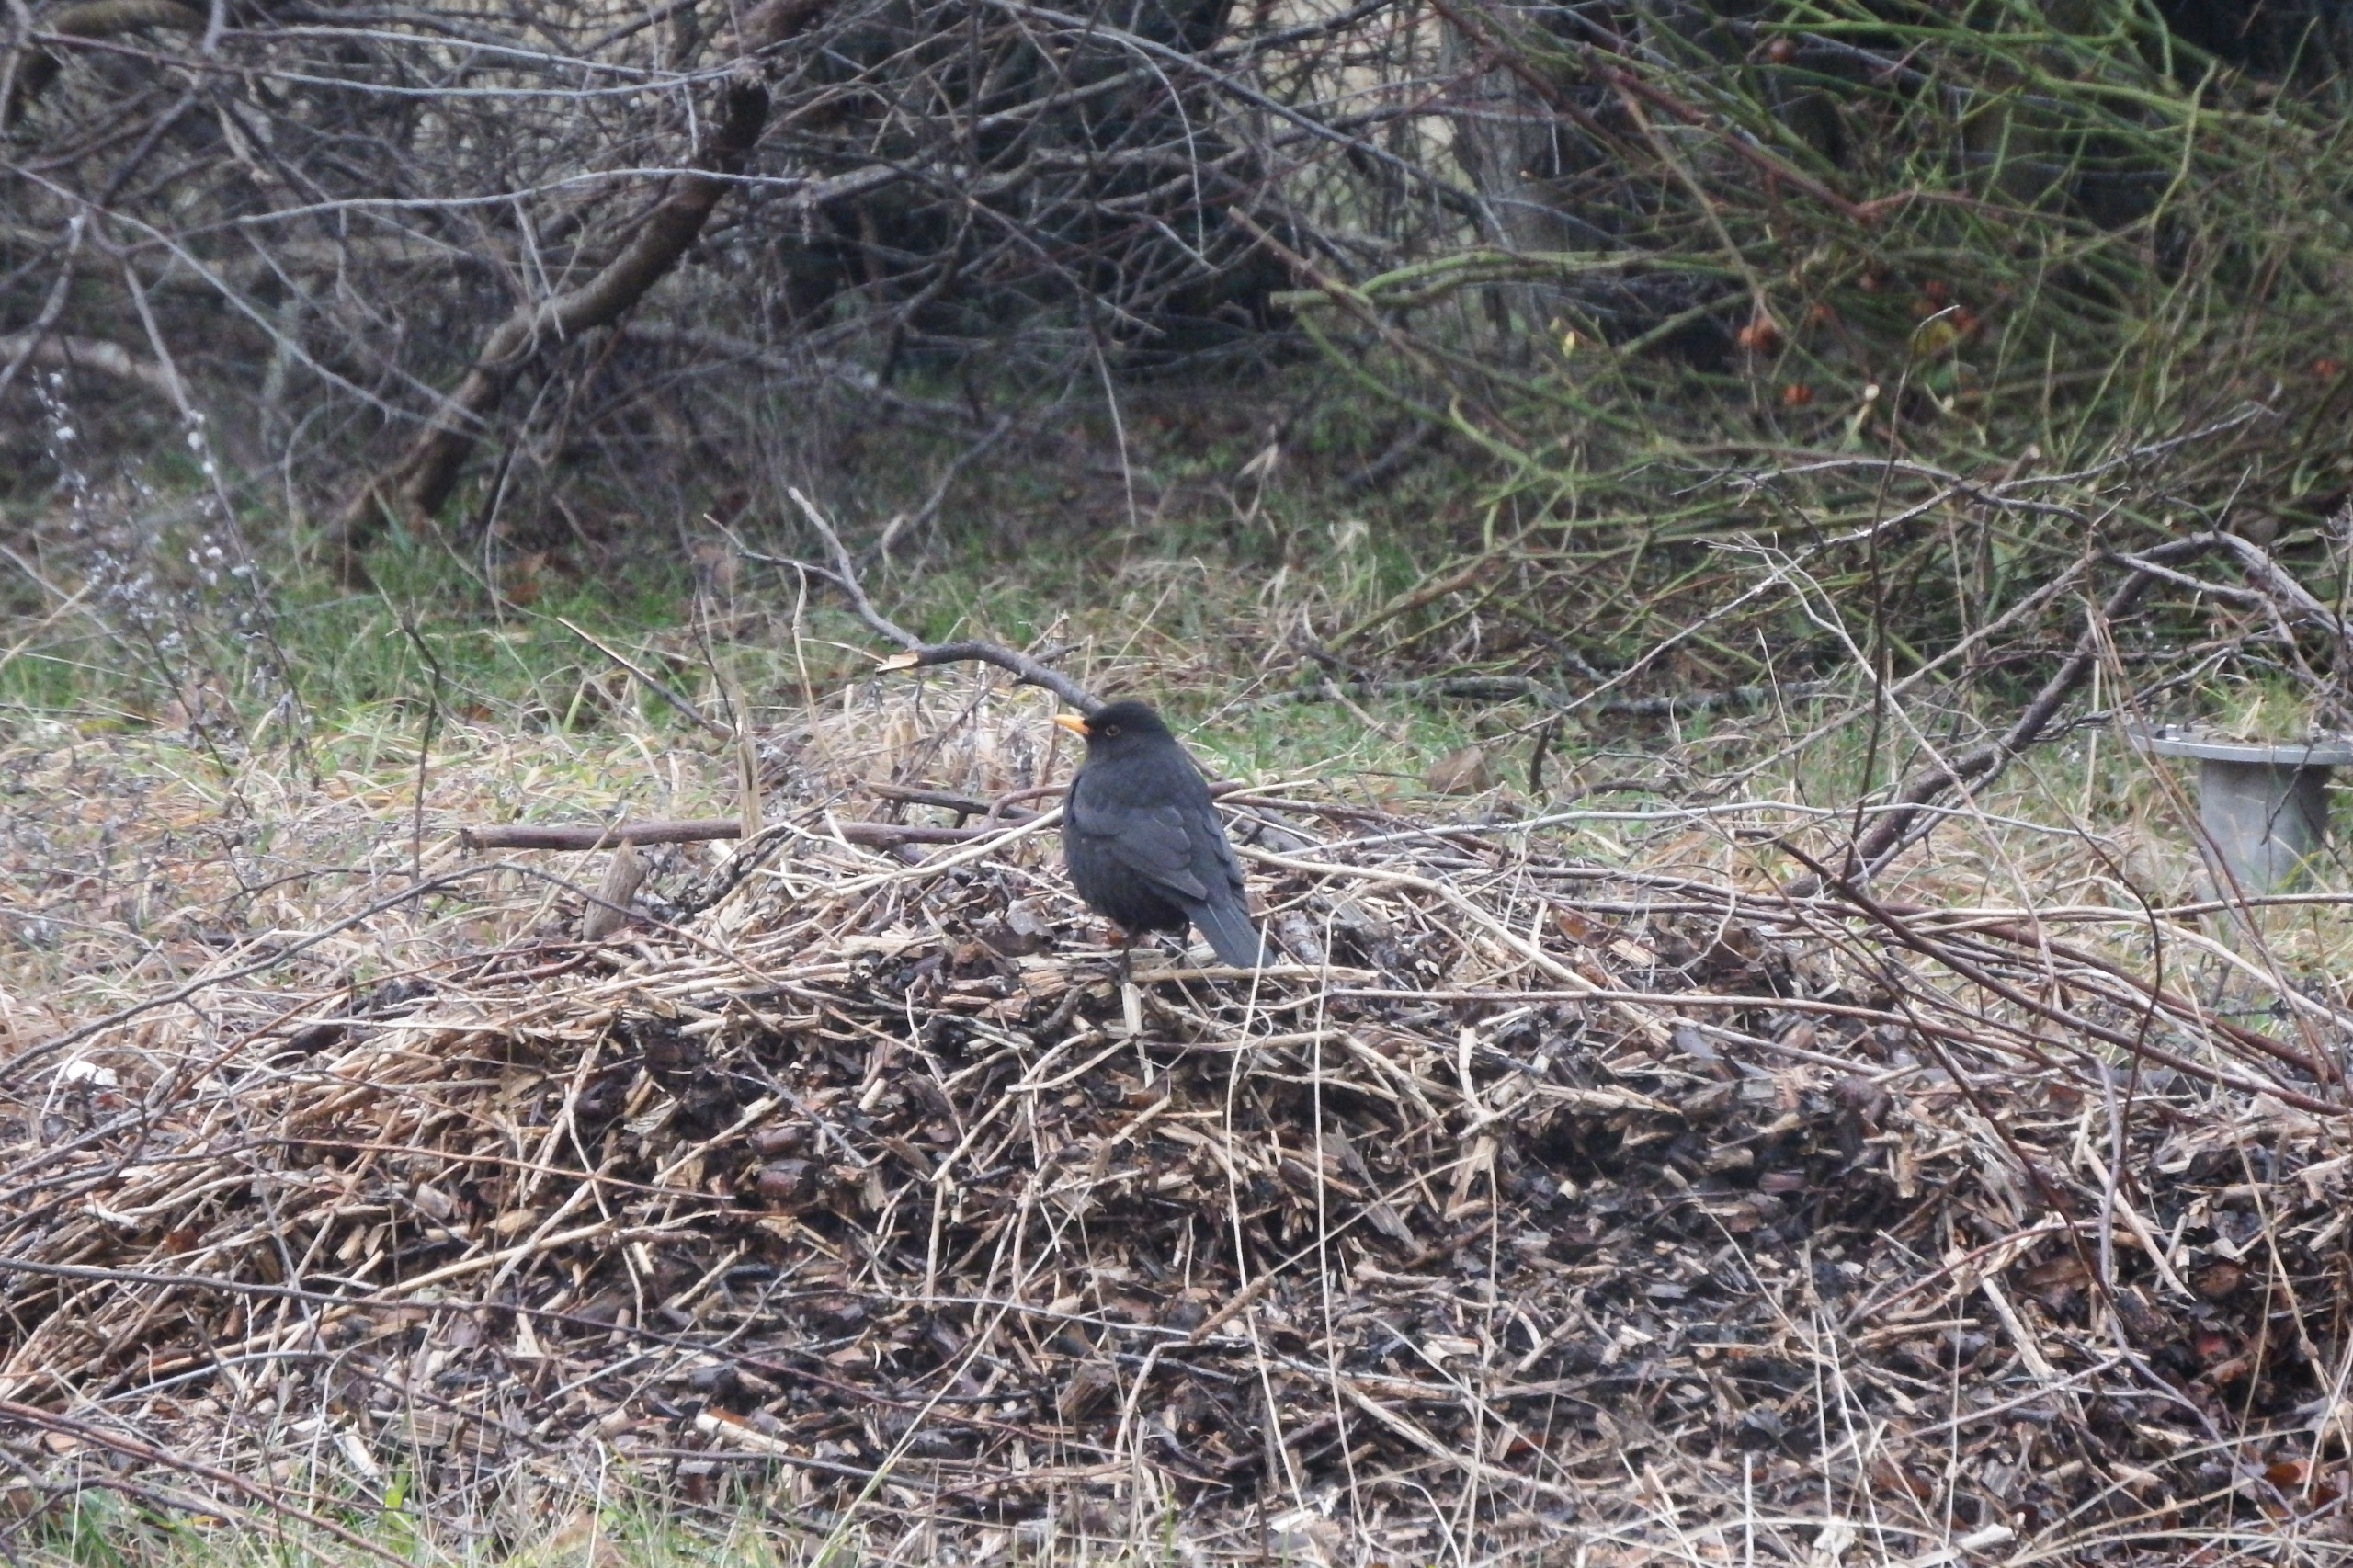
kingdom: Animalia
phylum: Chordata
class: Aves
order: Passeriformes
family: Turdidae
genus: Turdus
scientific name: Turdus merula
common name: Solsort
